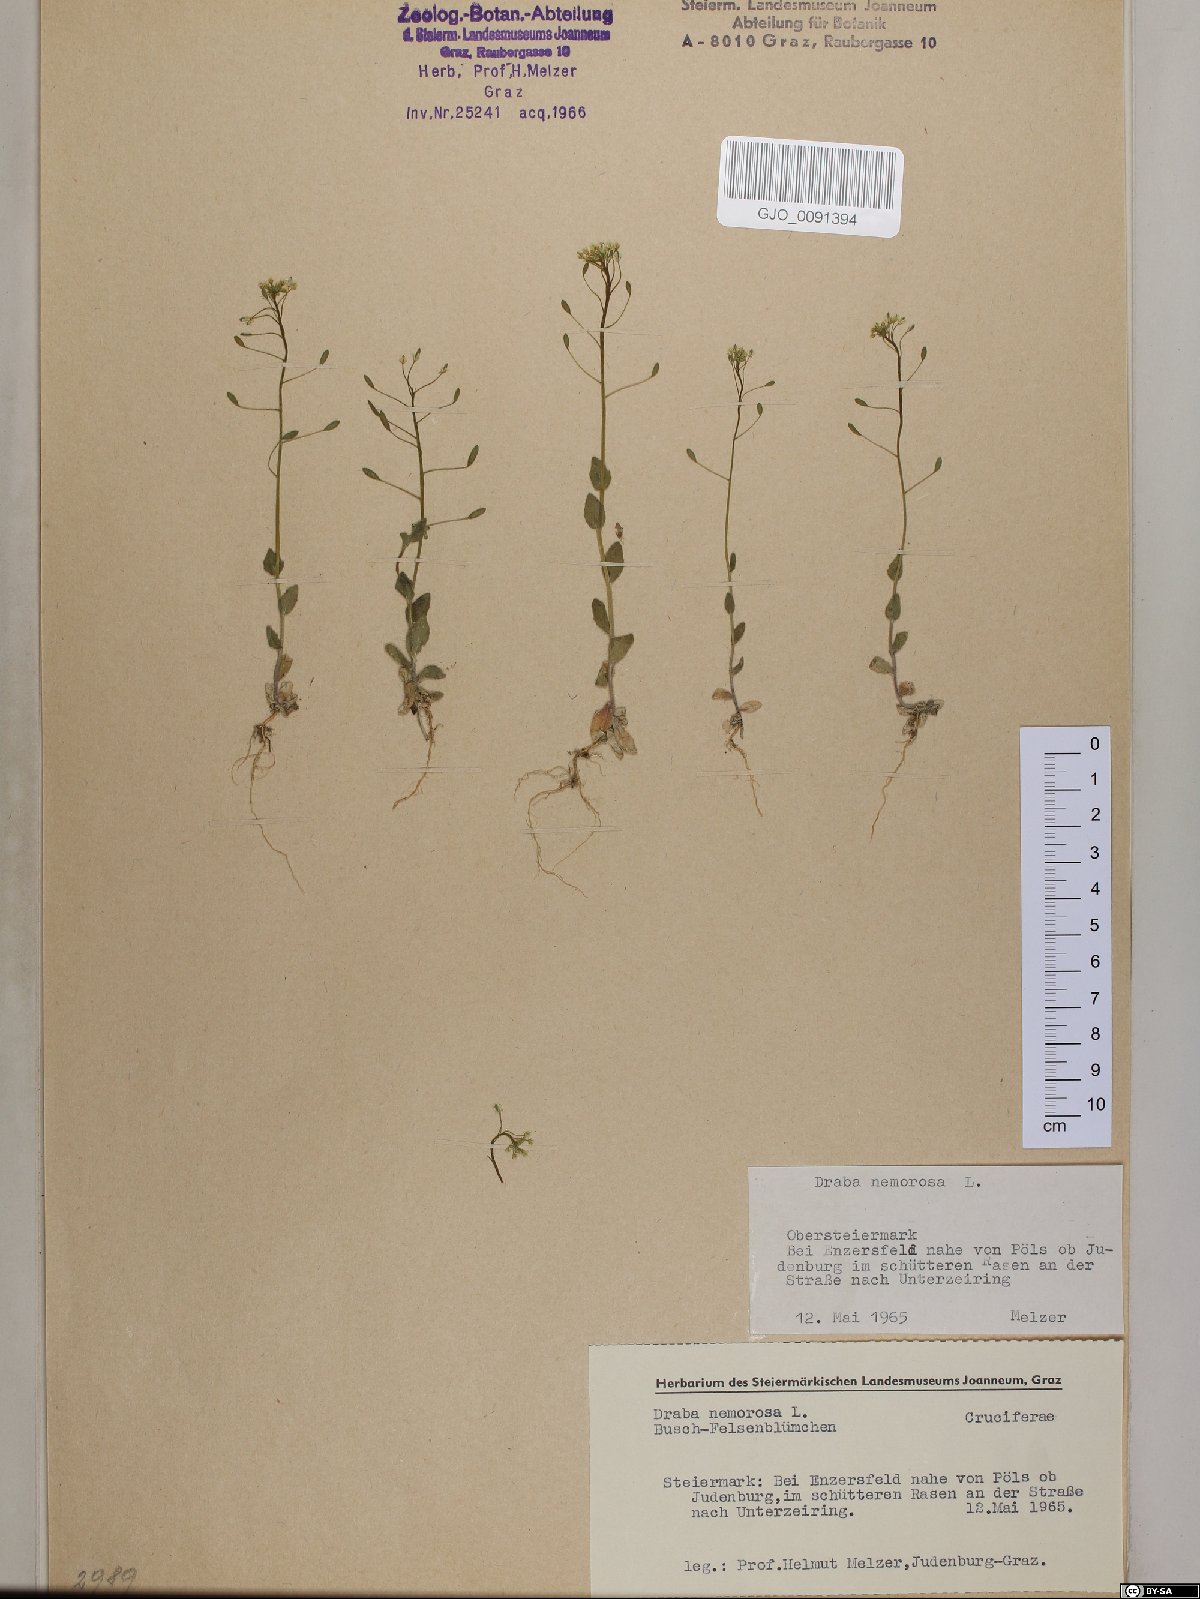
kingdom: Plantae
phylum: Tracheophyta
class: Magnoliopsida
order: Brassicales
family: Brassicaceae
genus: Draba
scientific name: Draba nemorosa
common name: Wood whitlow-grass
